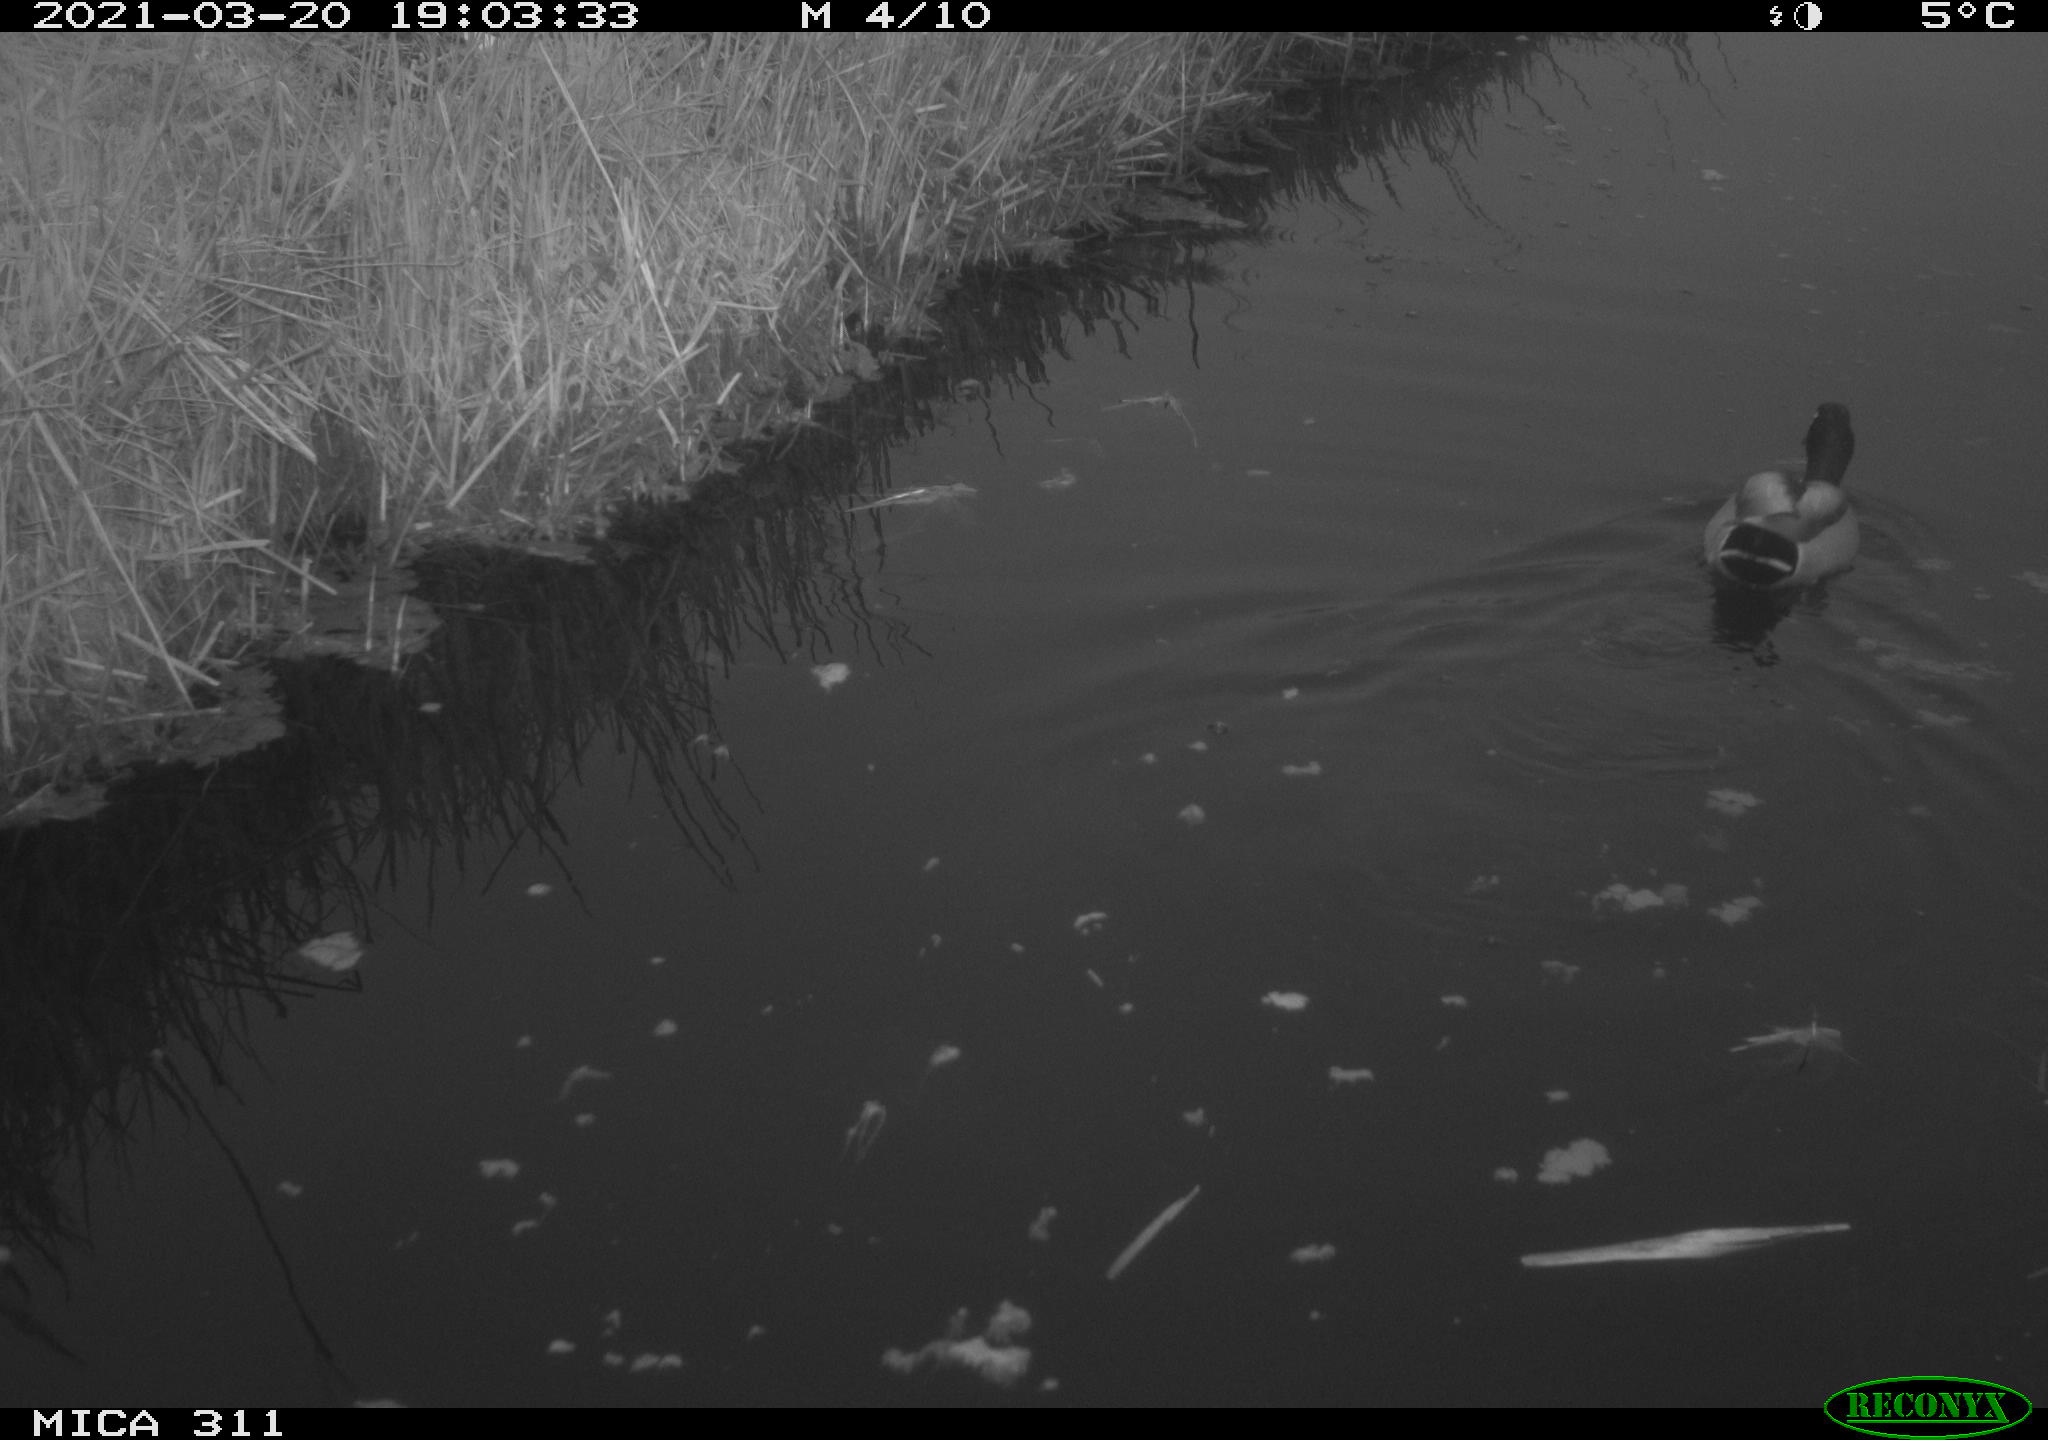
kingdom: Animalia
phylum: Chordata
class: Aves
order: Anseriformes
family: Anatidae
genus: Anas
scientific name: Anas
